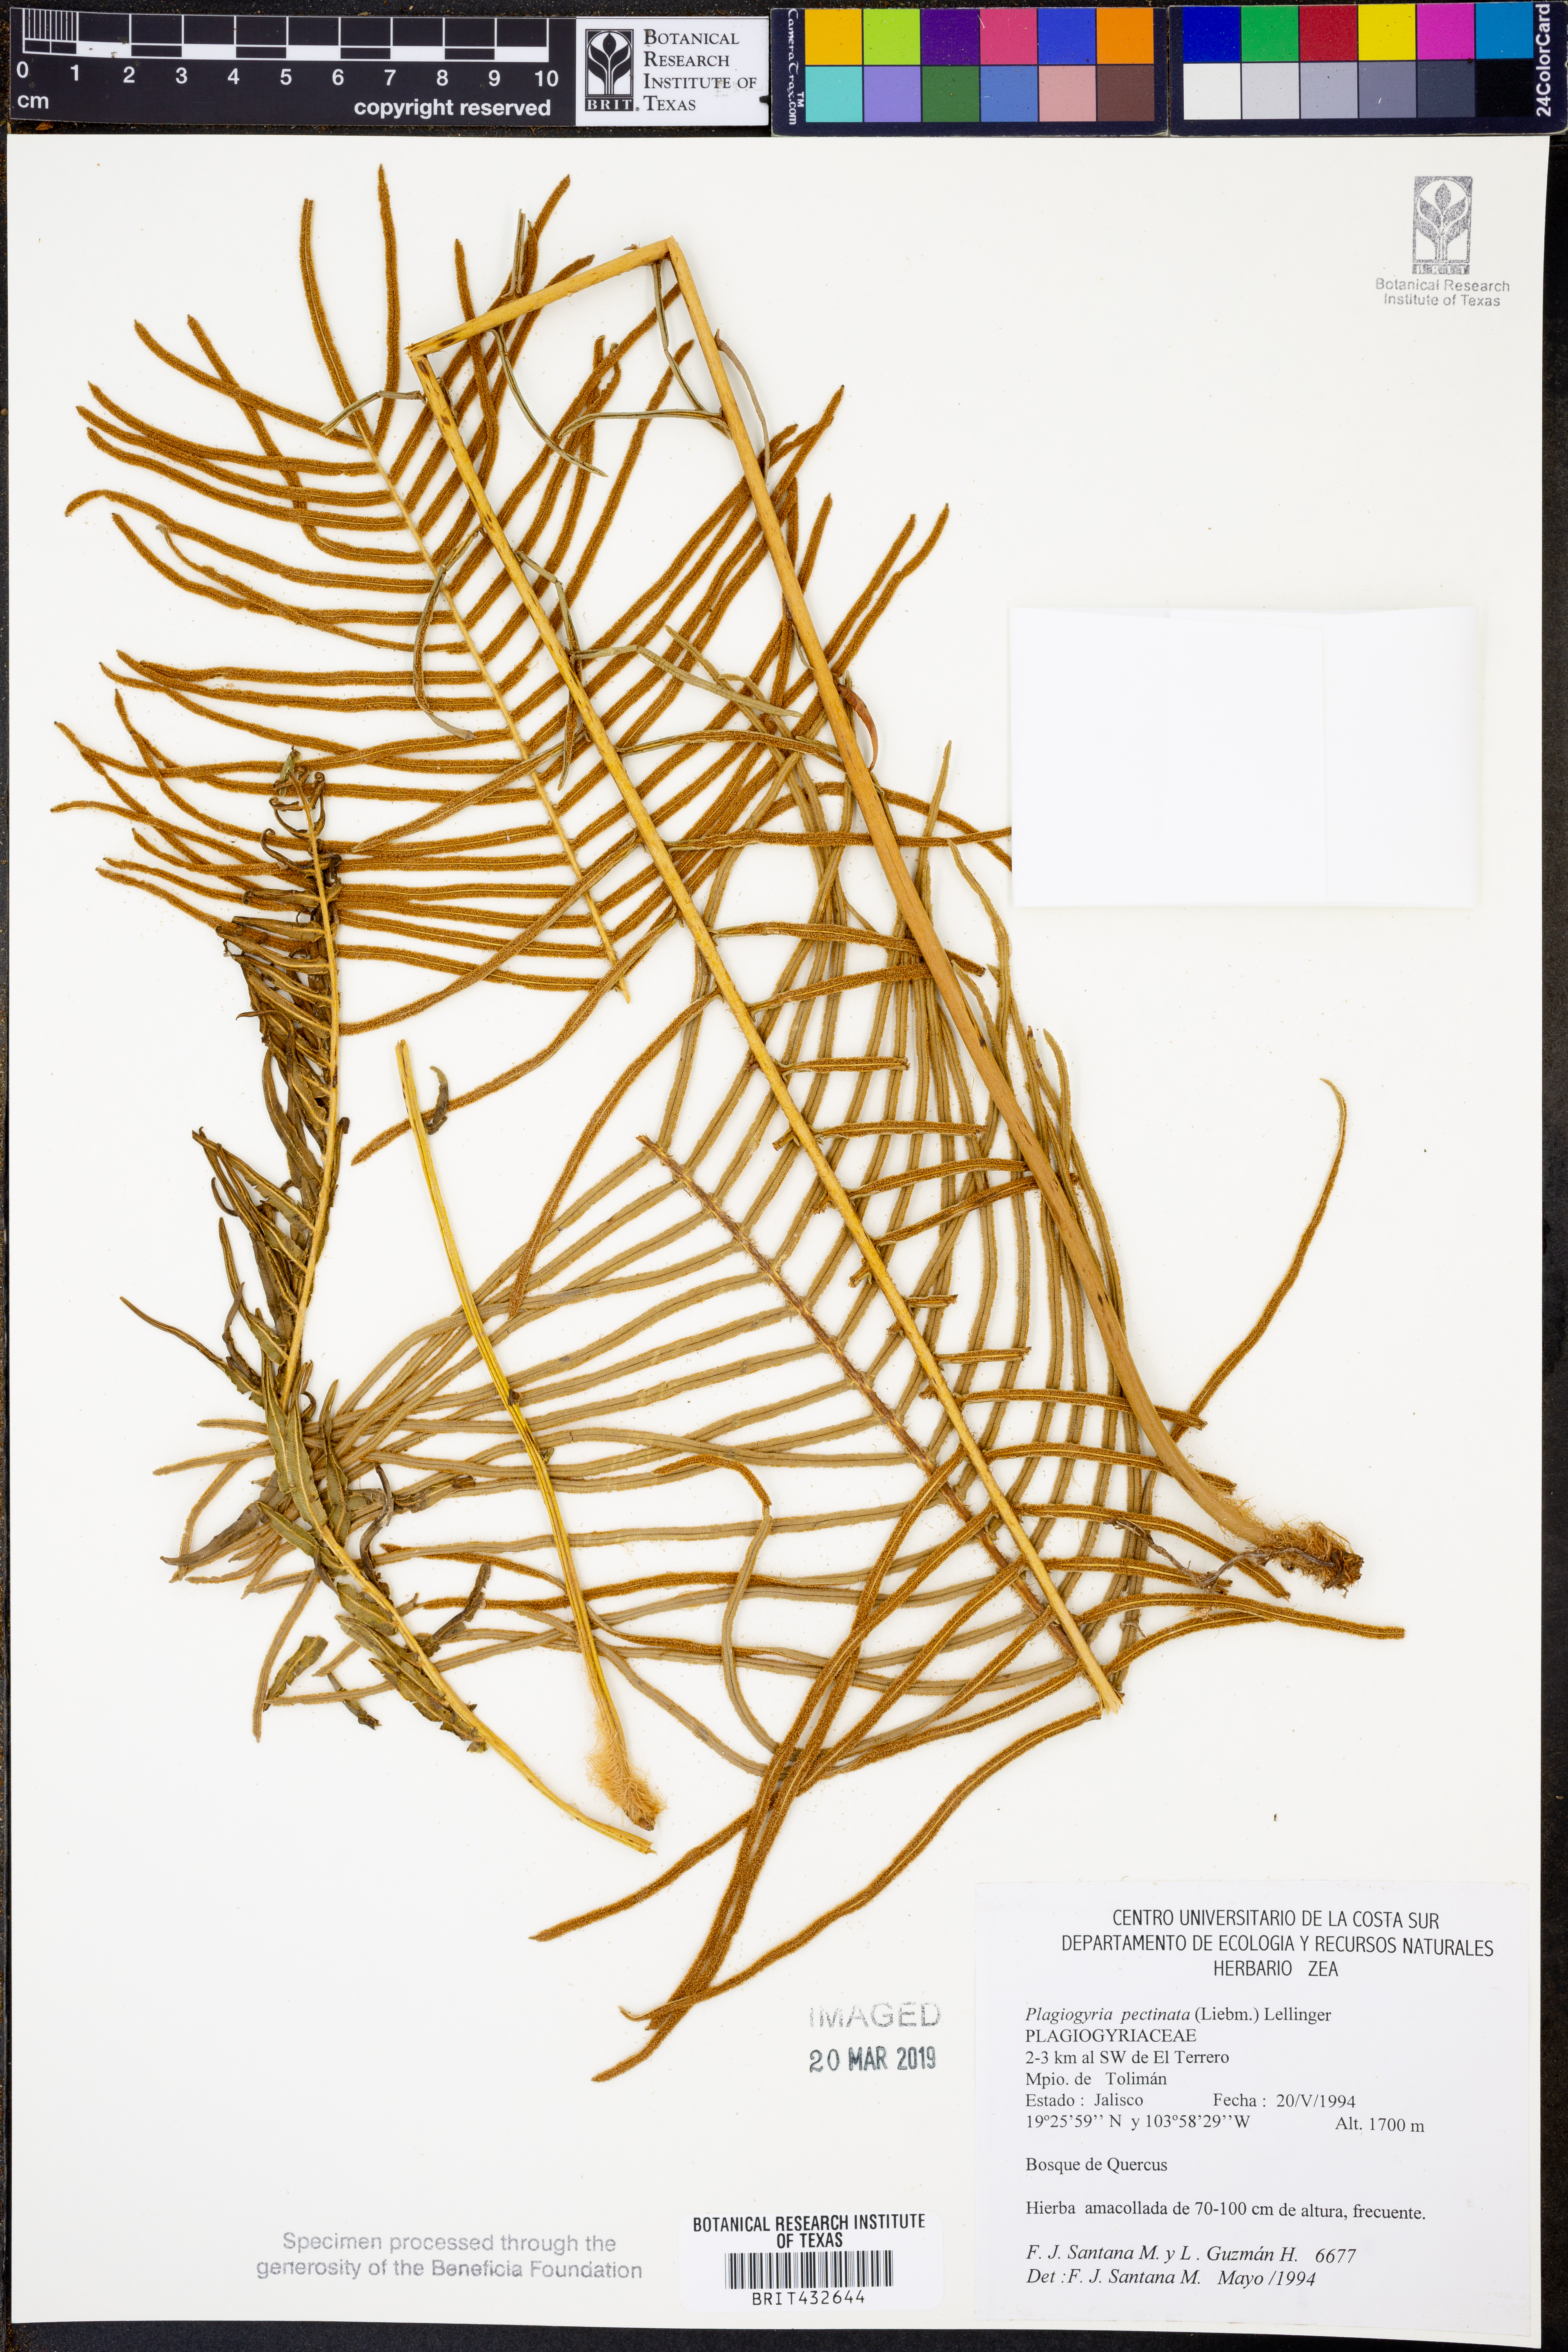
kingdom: Plantae
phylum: Tracheophyta
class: Polypodiopsida
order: Cyatheales
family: Plagiogyriaceae
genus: Plagiogyria
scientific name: Plagiogyria pectinata
